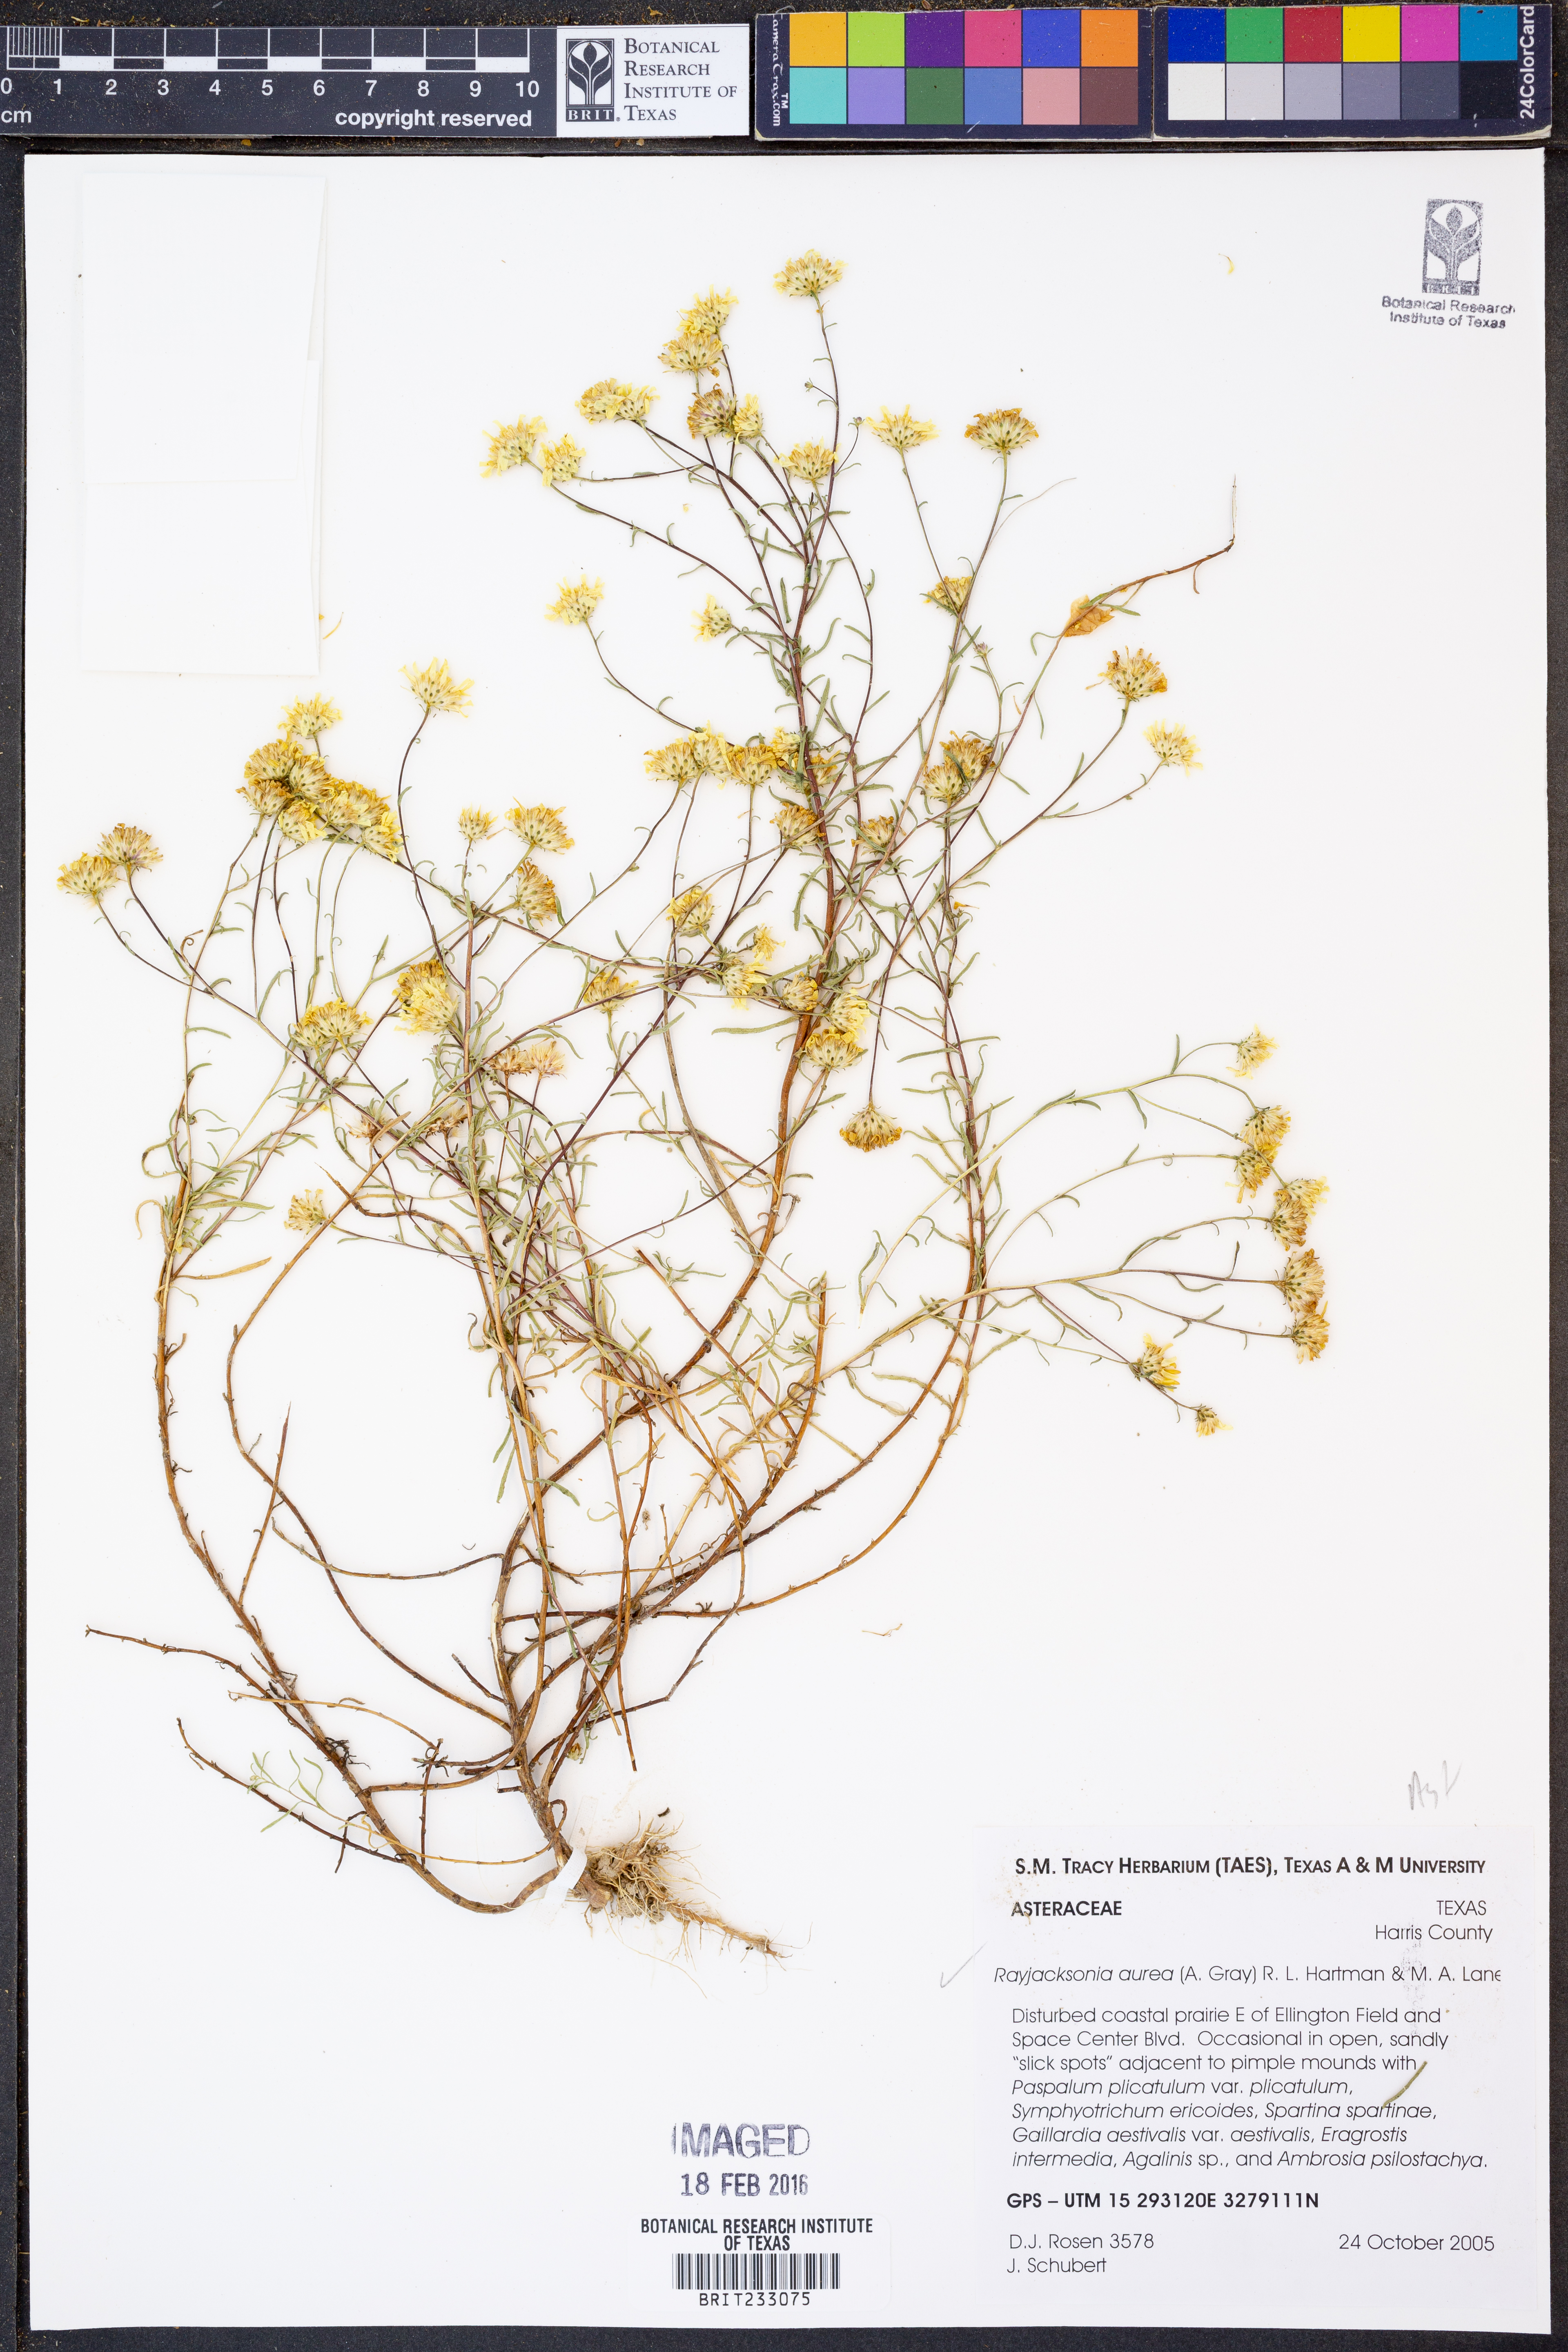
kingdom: Plantae
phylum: Tracheophyta
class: Magnoliopsida
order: Asterales
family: Asteraceae
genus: Rayjacksonia
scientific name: Rayjacksonia aurea
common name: Houston camphor daisy
